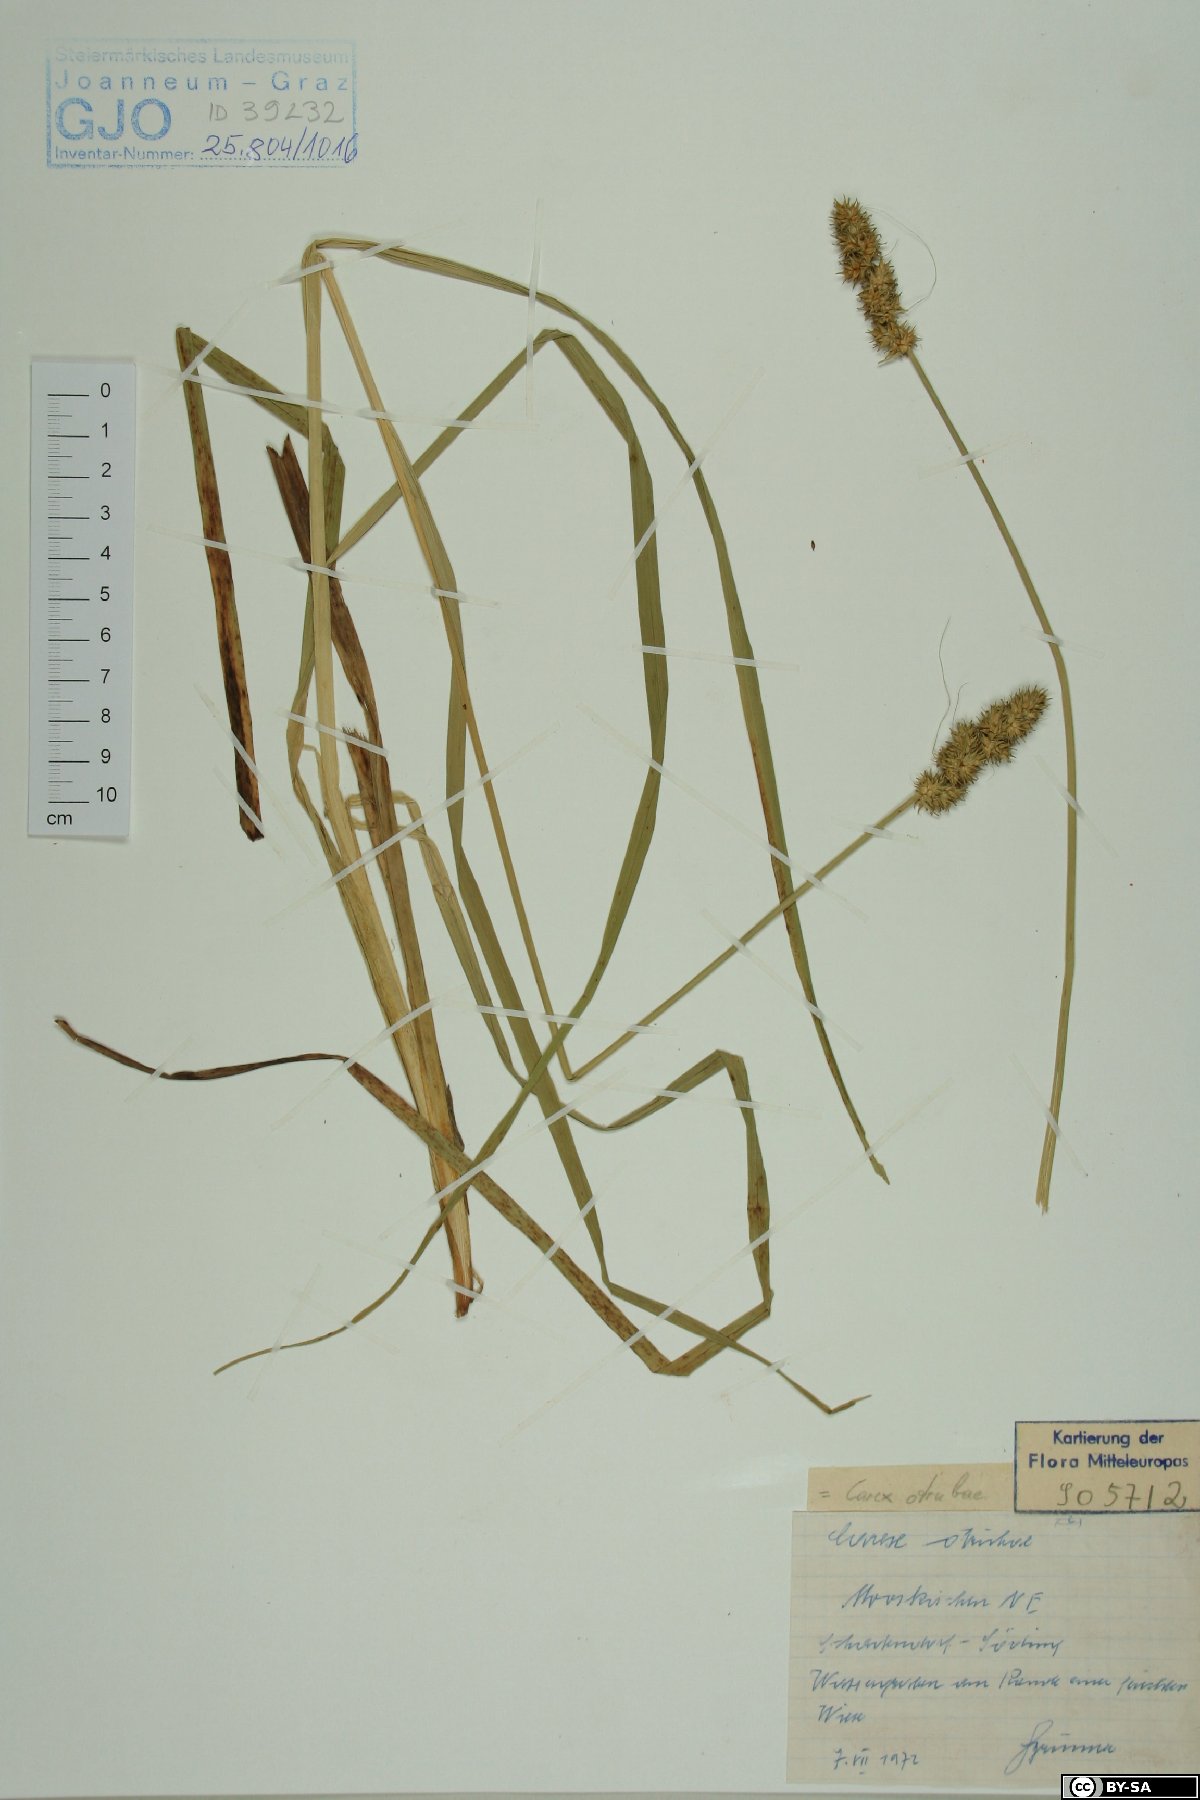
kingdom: Plantae
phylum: Tracheophyta
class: Liliopsida
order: Poales
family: Cyperaceae
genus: Carex
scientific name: Carex otrubae
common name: False fox-sedge
